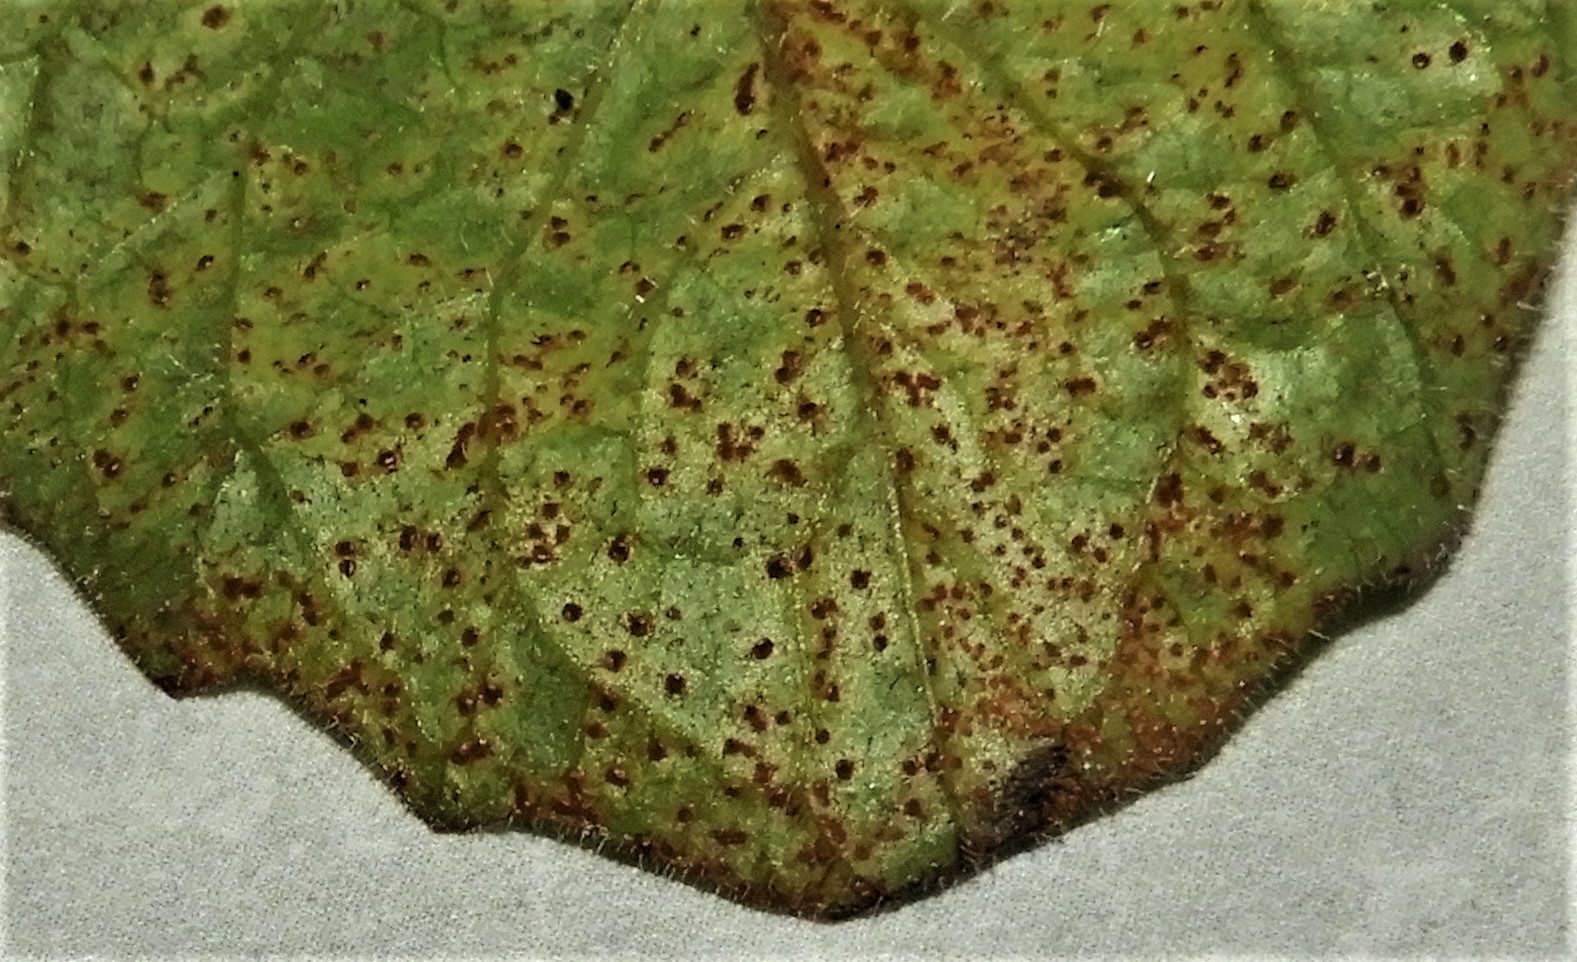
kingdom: Fungi
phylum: Basidiomycota
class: Pucciniomycetes
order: Pucciniales
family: Pucciniaceae
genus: Puccinia
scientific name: Puccinia lapsanae
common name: Nipplewort rust
